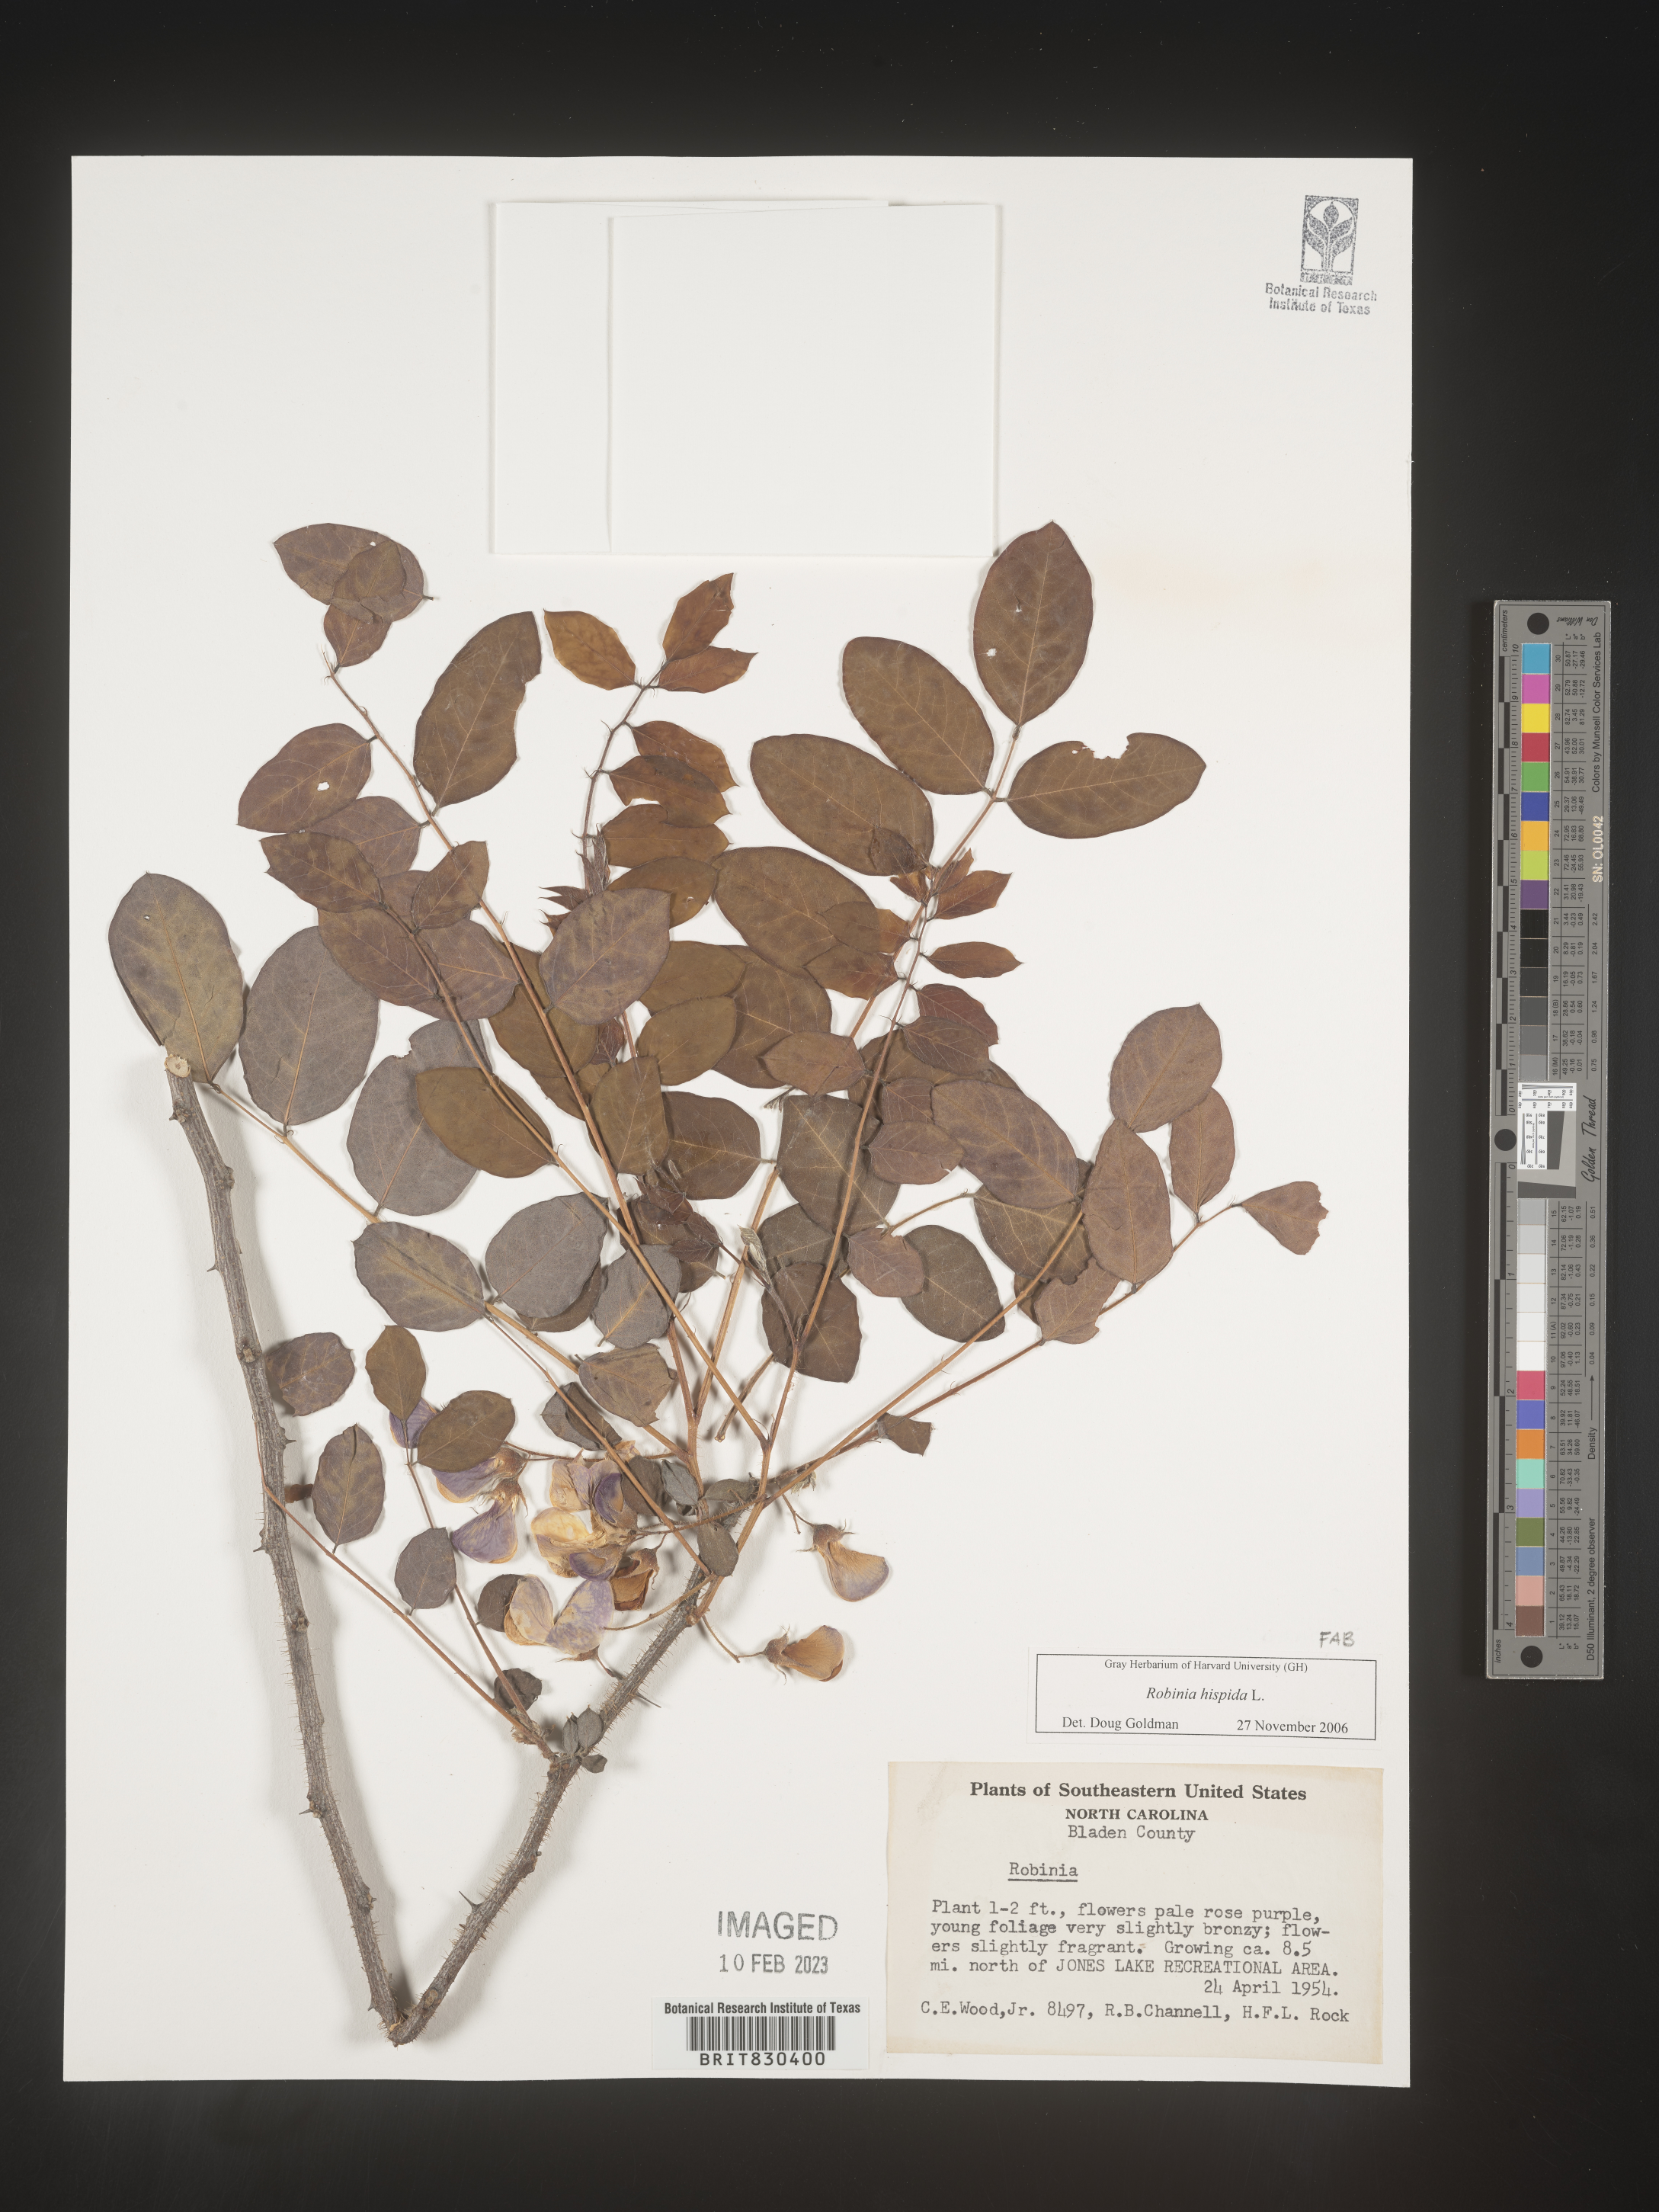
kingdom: Plantae
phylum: Tracheophyta
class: Magnoliopsida
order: Fabales
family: Fabaceae
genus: Robinia
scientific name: Robinia hispida
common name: Bristly locust
